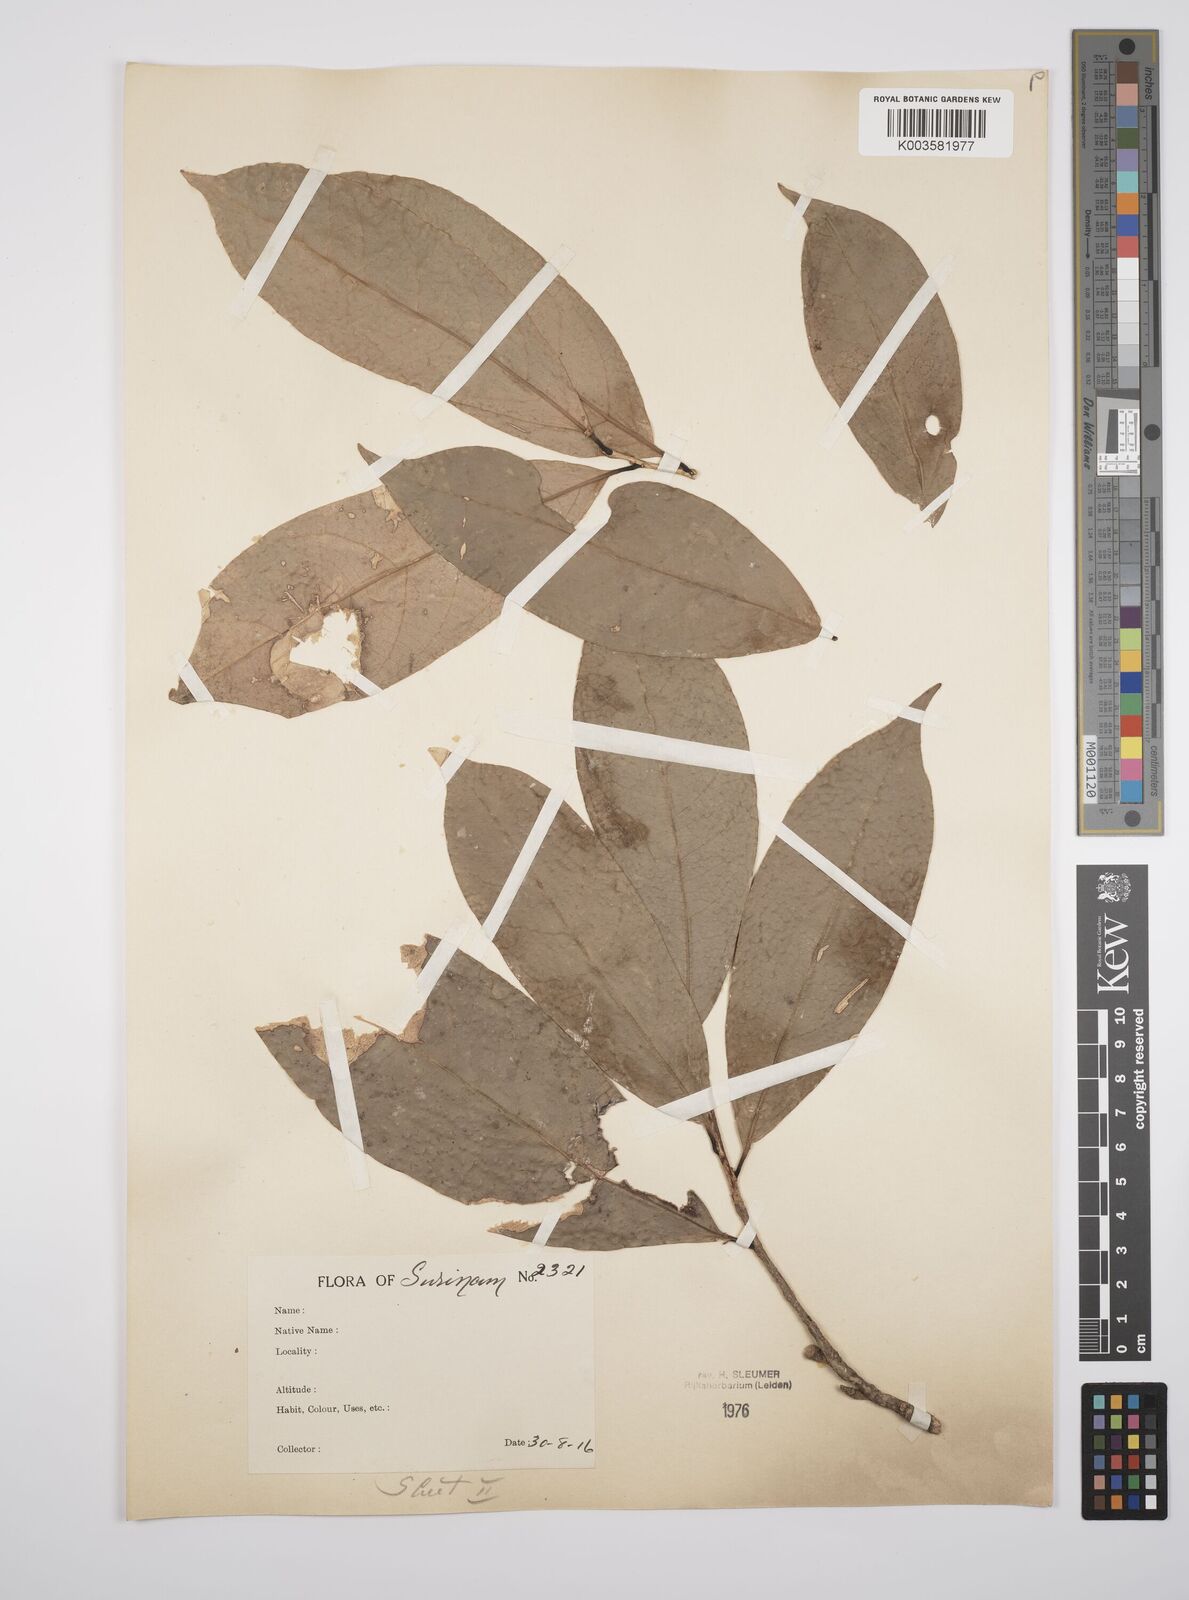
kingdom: Plantae
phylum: Tracheophyta
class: Magnoliopsida
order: Malpighiales
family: Salicaceae
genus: Casearia
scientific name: Casearia combaymensis
